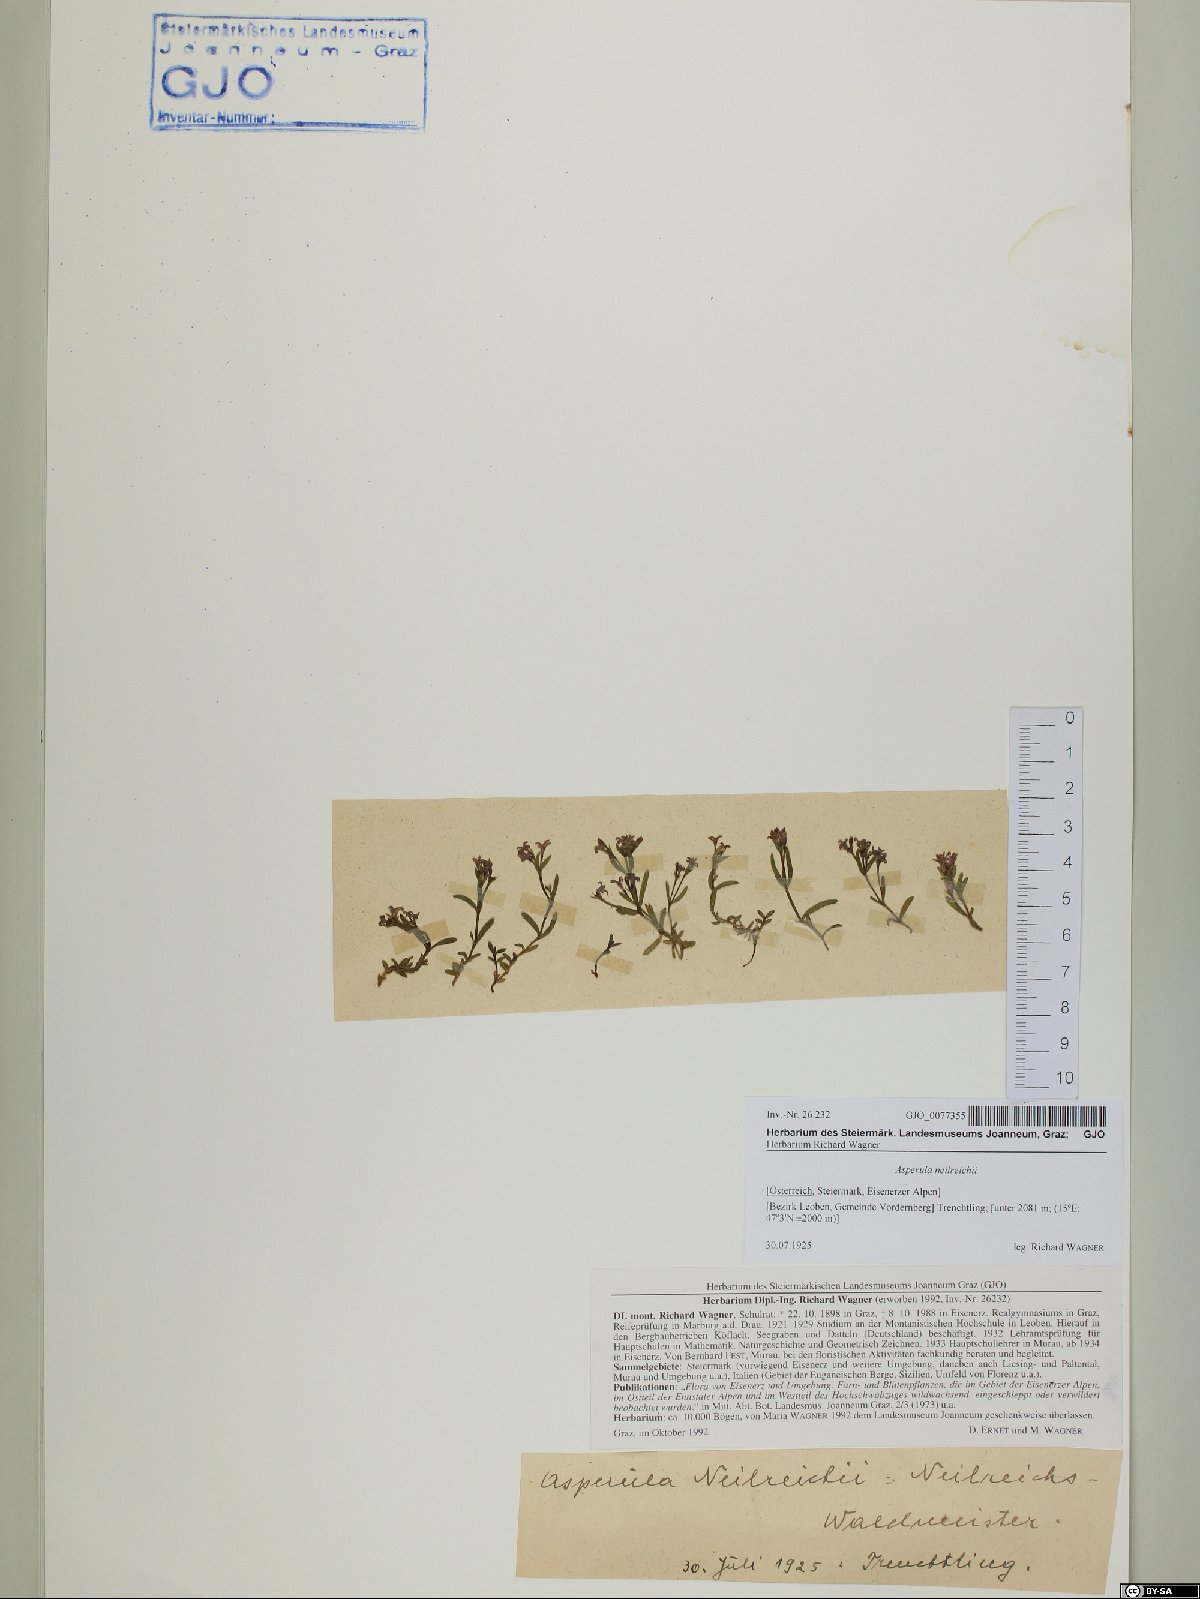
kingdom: Plantae
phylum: Tracheophyta
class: Magnoliopsida
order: Gentianales
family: Rubiaceae
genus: Cynanchica
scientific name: Cynanchica neilreichii
